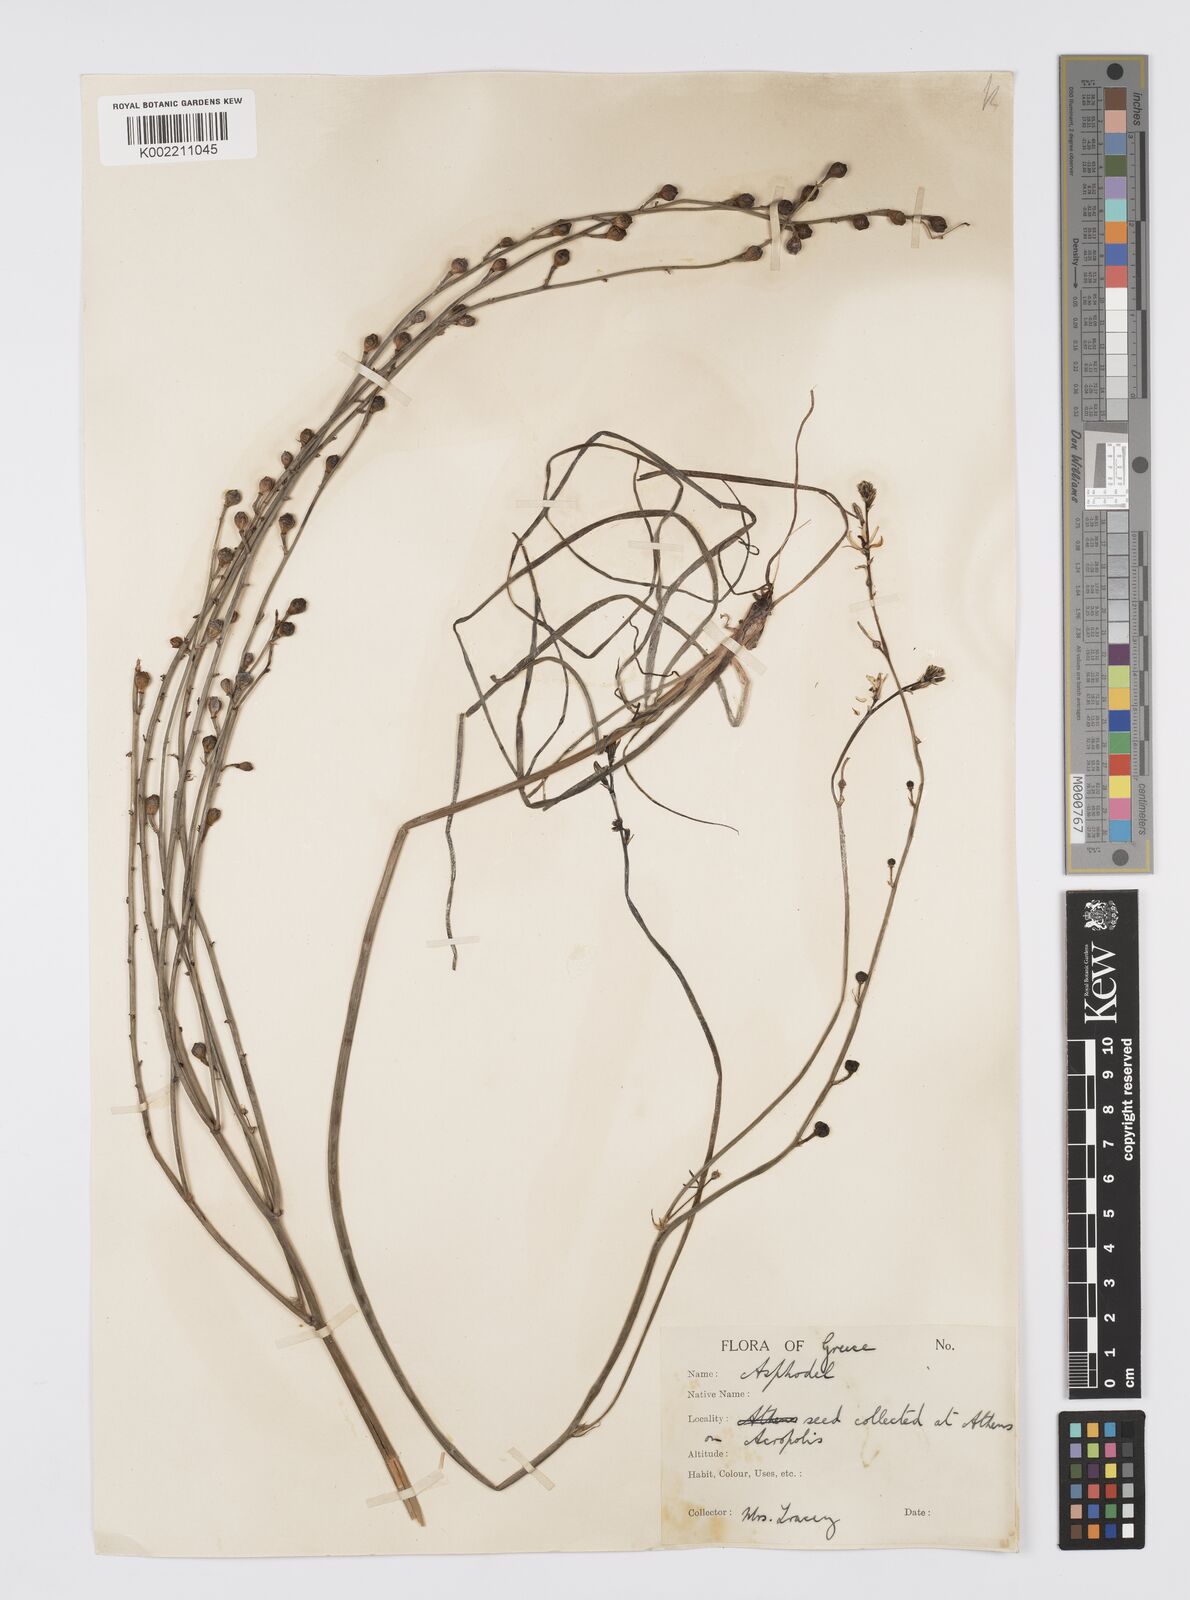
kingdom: Plantae
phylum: Tracheophyta
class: Liliopsida
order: Asparagales
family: Asphodelaceae
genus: Asphodelus
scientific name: Asphodelus fistulosus
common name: Onionweed
